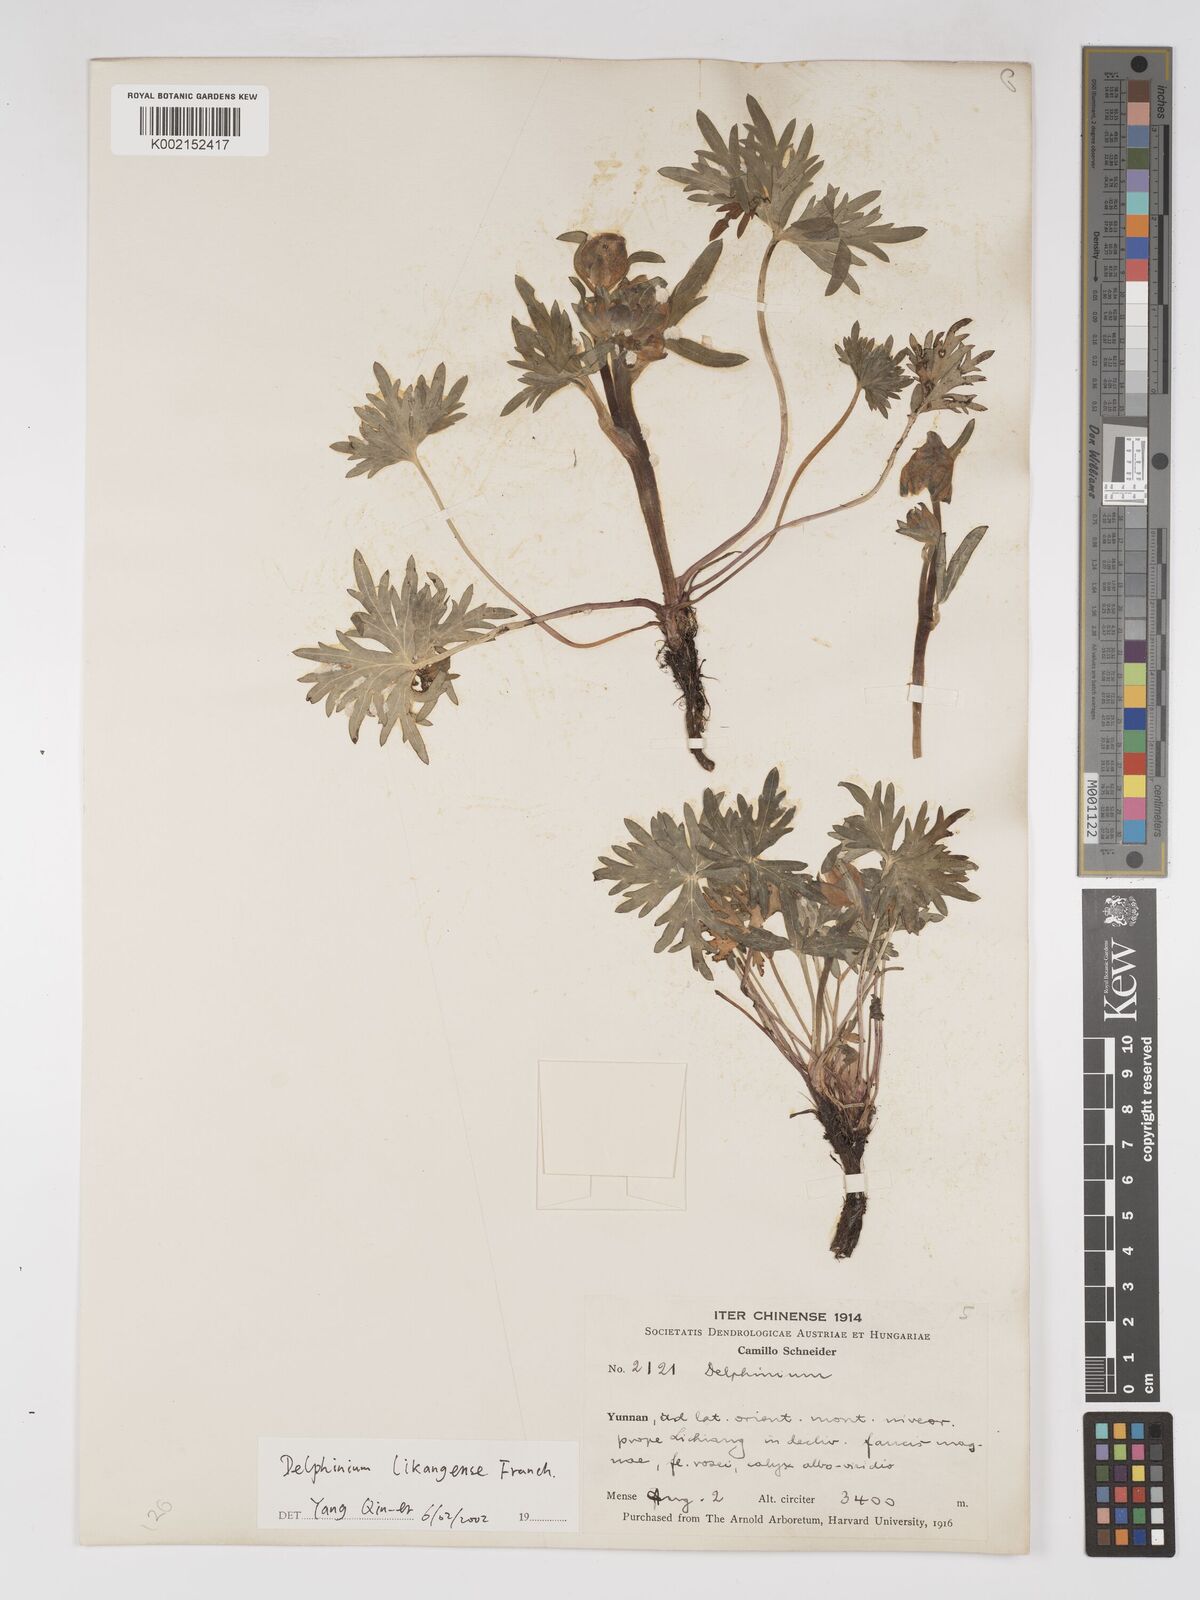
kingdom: Plantae
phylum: Tracheophyta
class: Magnoliopsida
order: Ranunculales
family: Ranunculaceae
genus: Delphinium
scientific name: Delphinium likiangense
